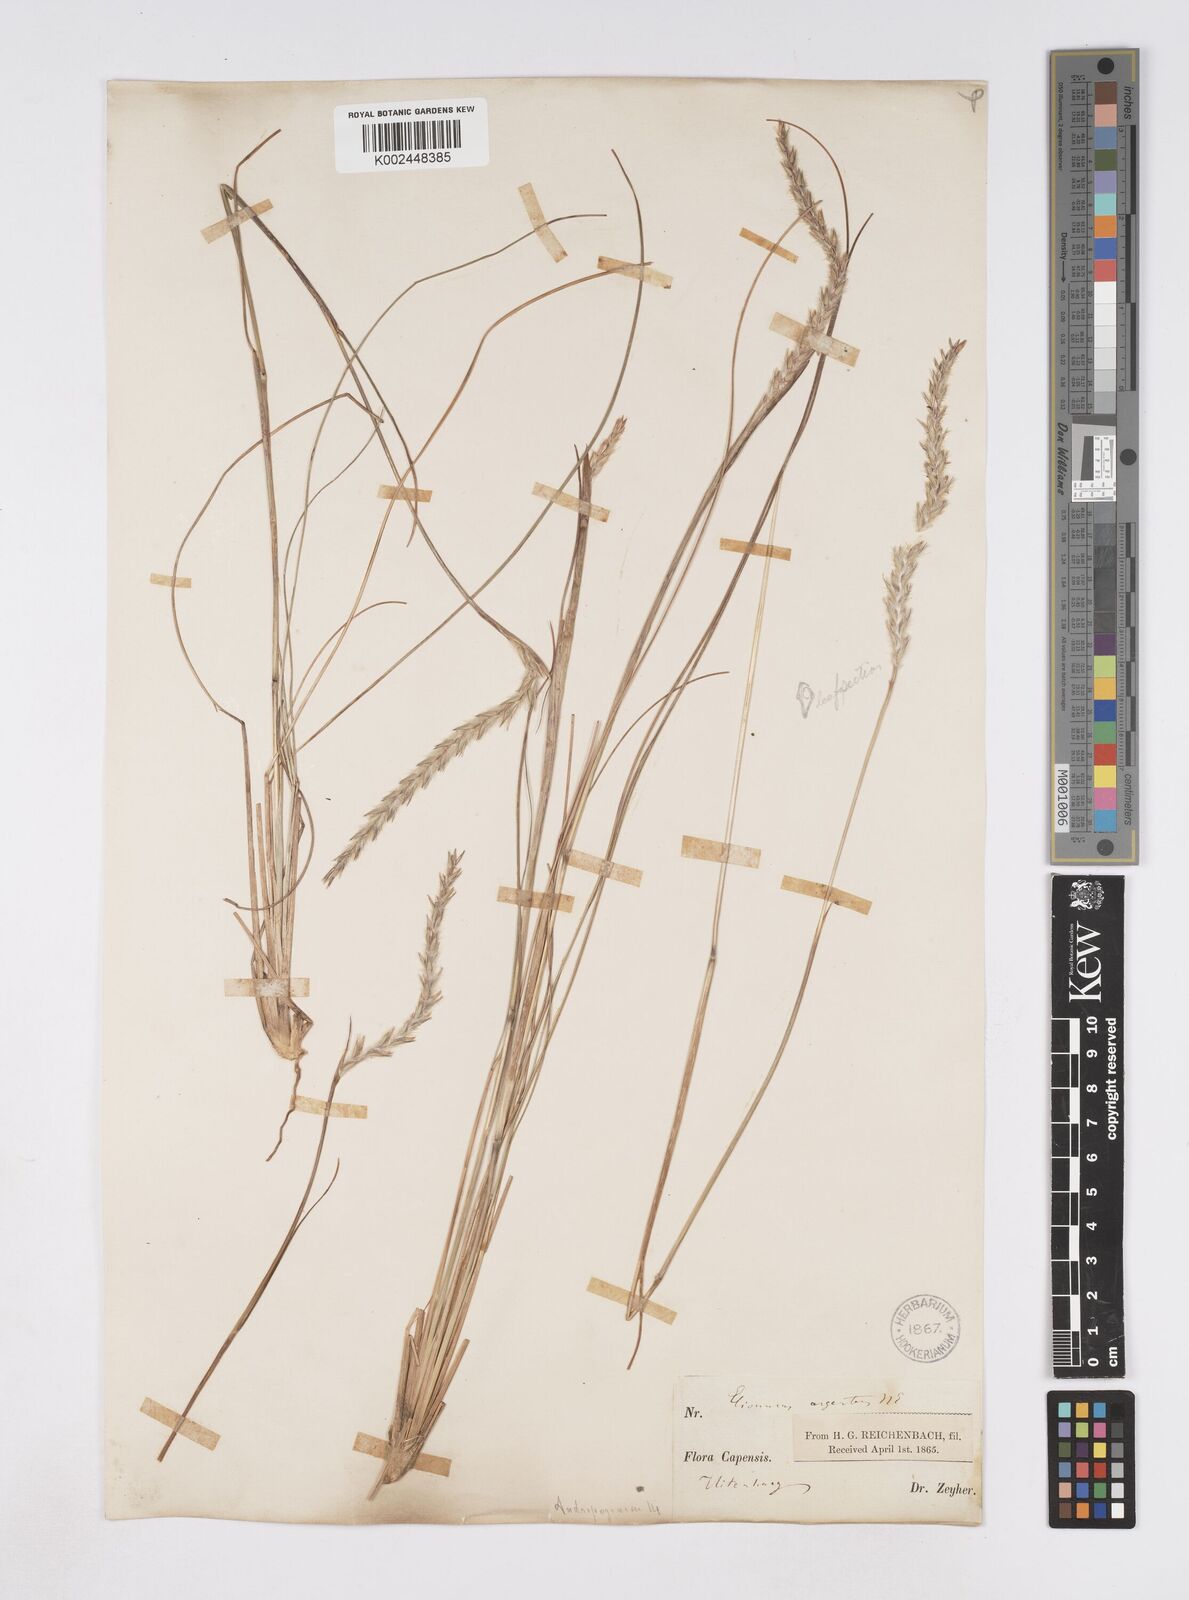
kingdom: Plantae
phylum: Tracheophyta
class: Liliopsida
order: Poales
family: Poaceae
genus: Elionurus
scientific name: Elionurus muticus
